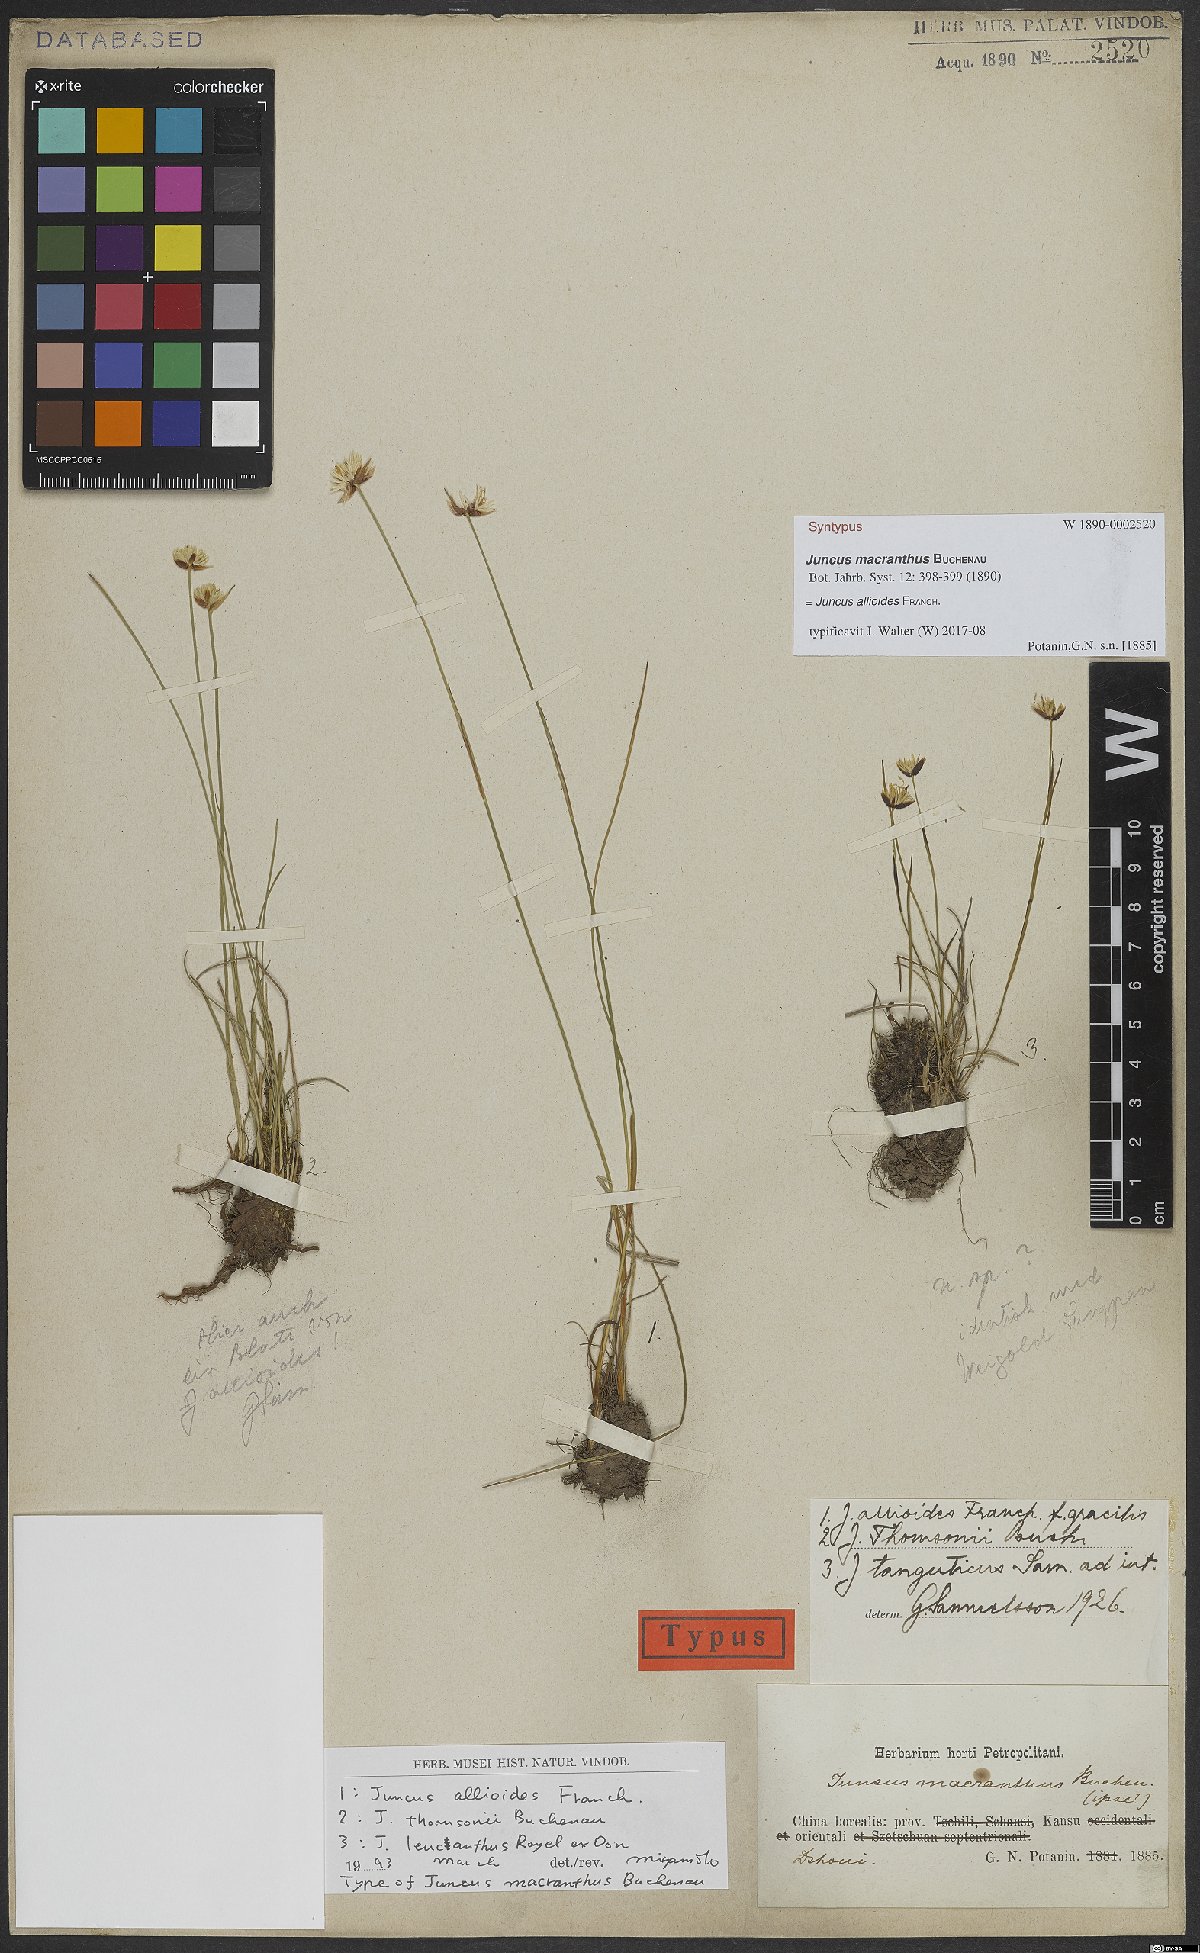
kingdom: Plantae
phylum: Tracheophyta
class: Liliopsida
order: Poales
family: Juncaceae
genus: Juncus
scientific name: Juncus allioides
